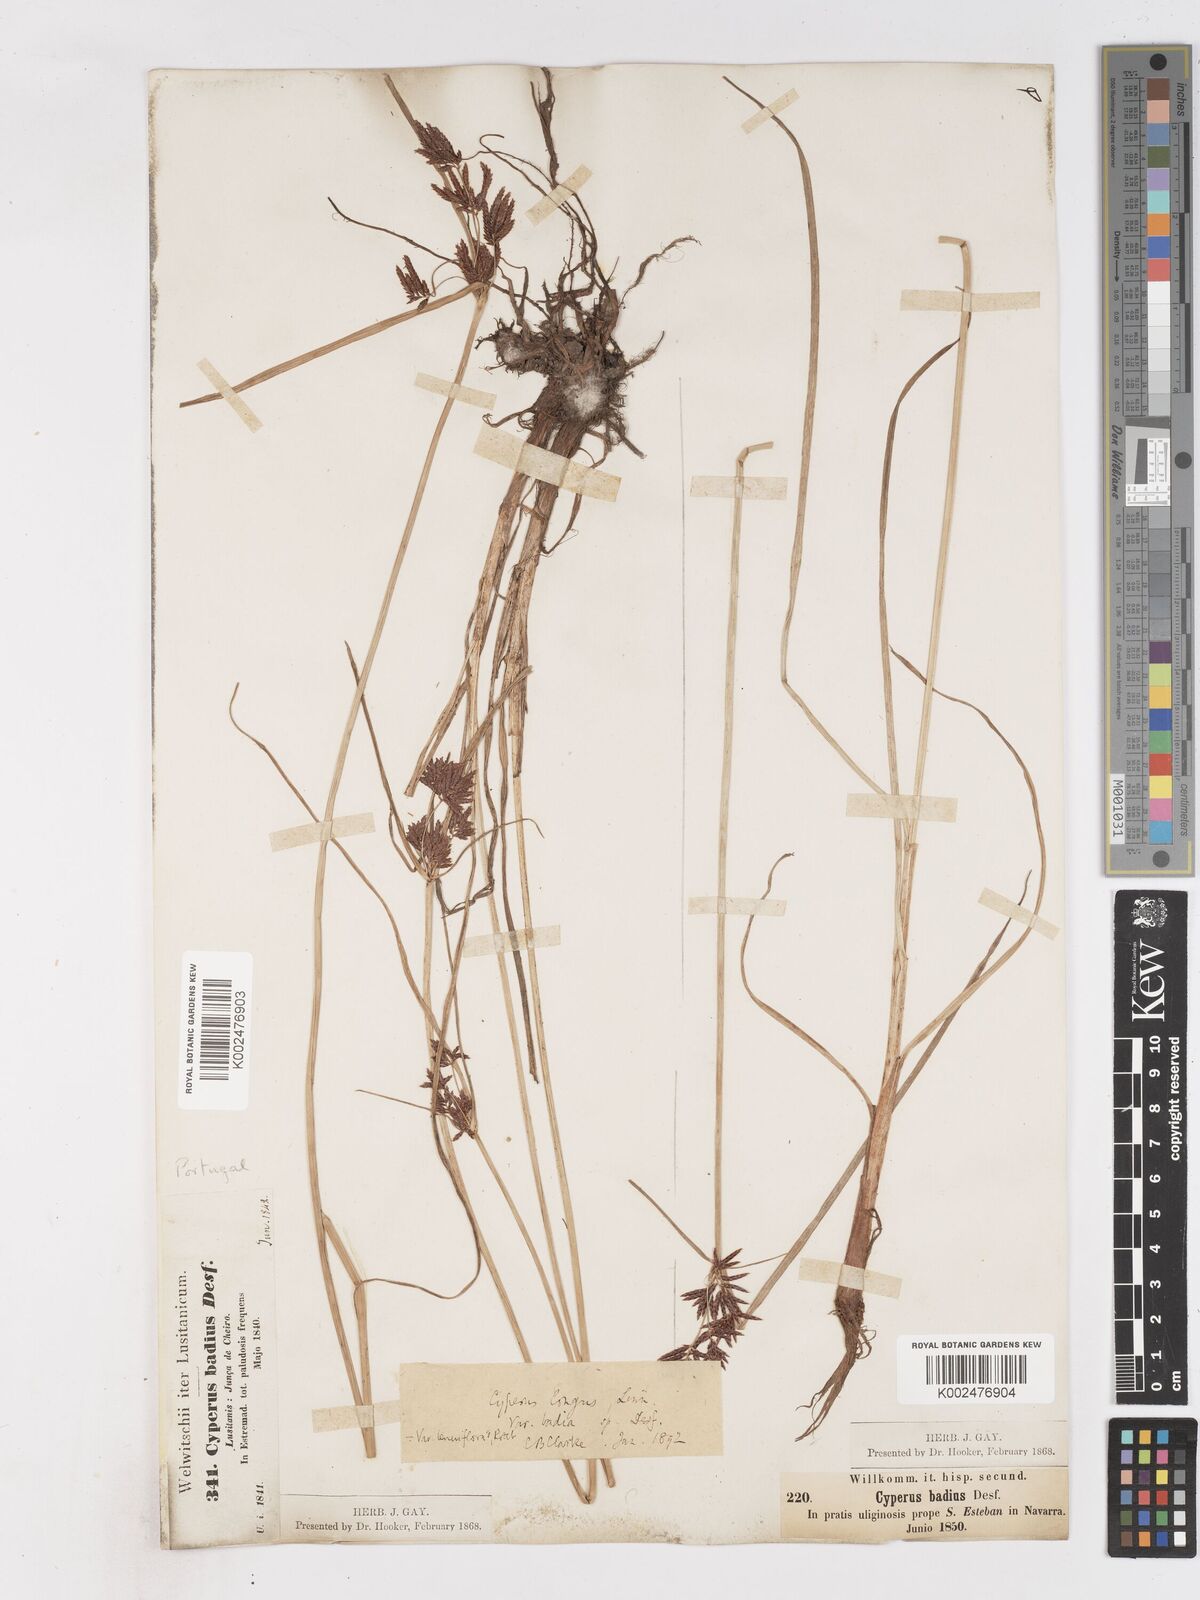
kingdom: Plantae
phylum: Tracheophyta
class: Liliopsida
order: Poales
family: Cyperaceae
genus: Cyperus
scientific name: Cyperus longus
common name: Galingale
